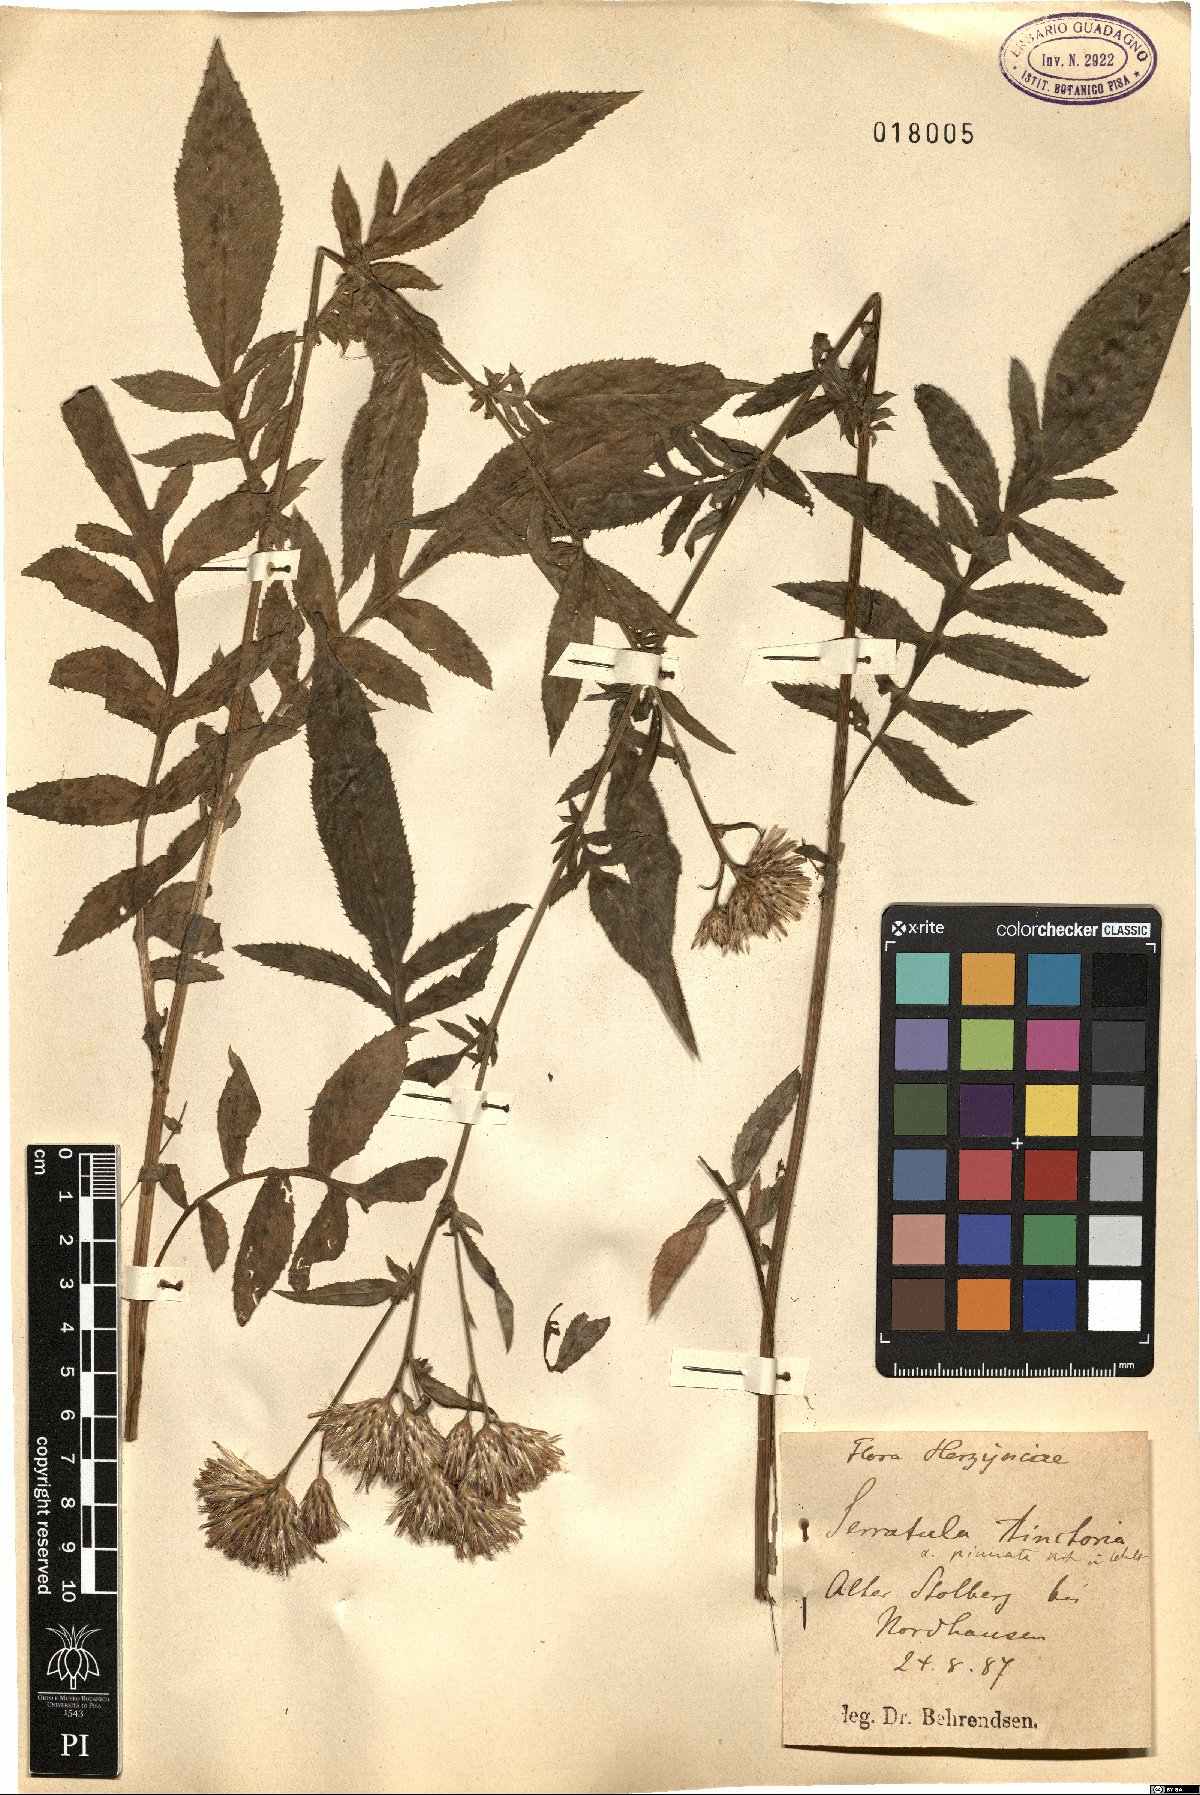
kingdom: Plantae
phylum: Tracheophyta
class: Magnoliopsida
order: Asterales
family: Asteraceae
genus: Serratula
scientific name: Serratula tinctoria
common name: Saw-wort
